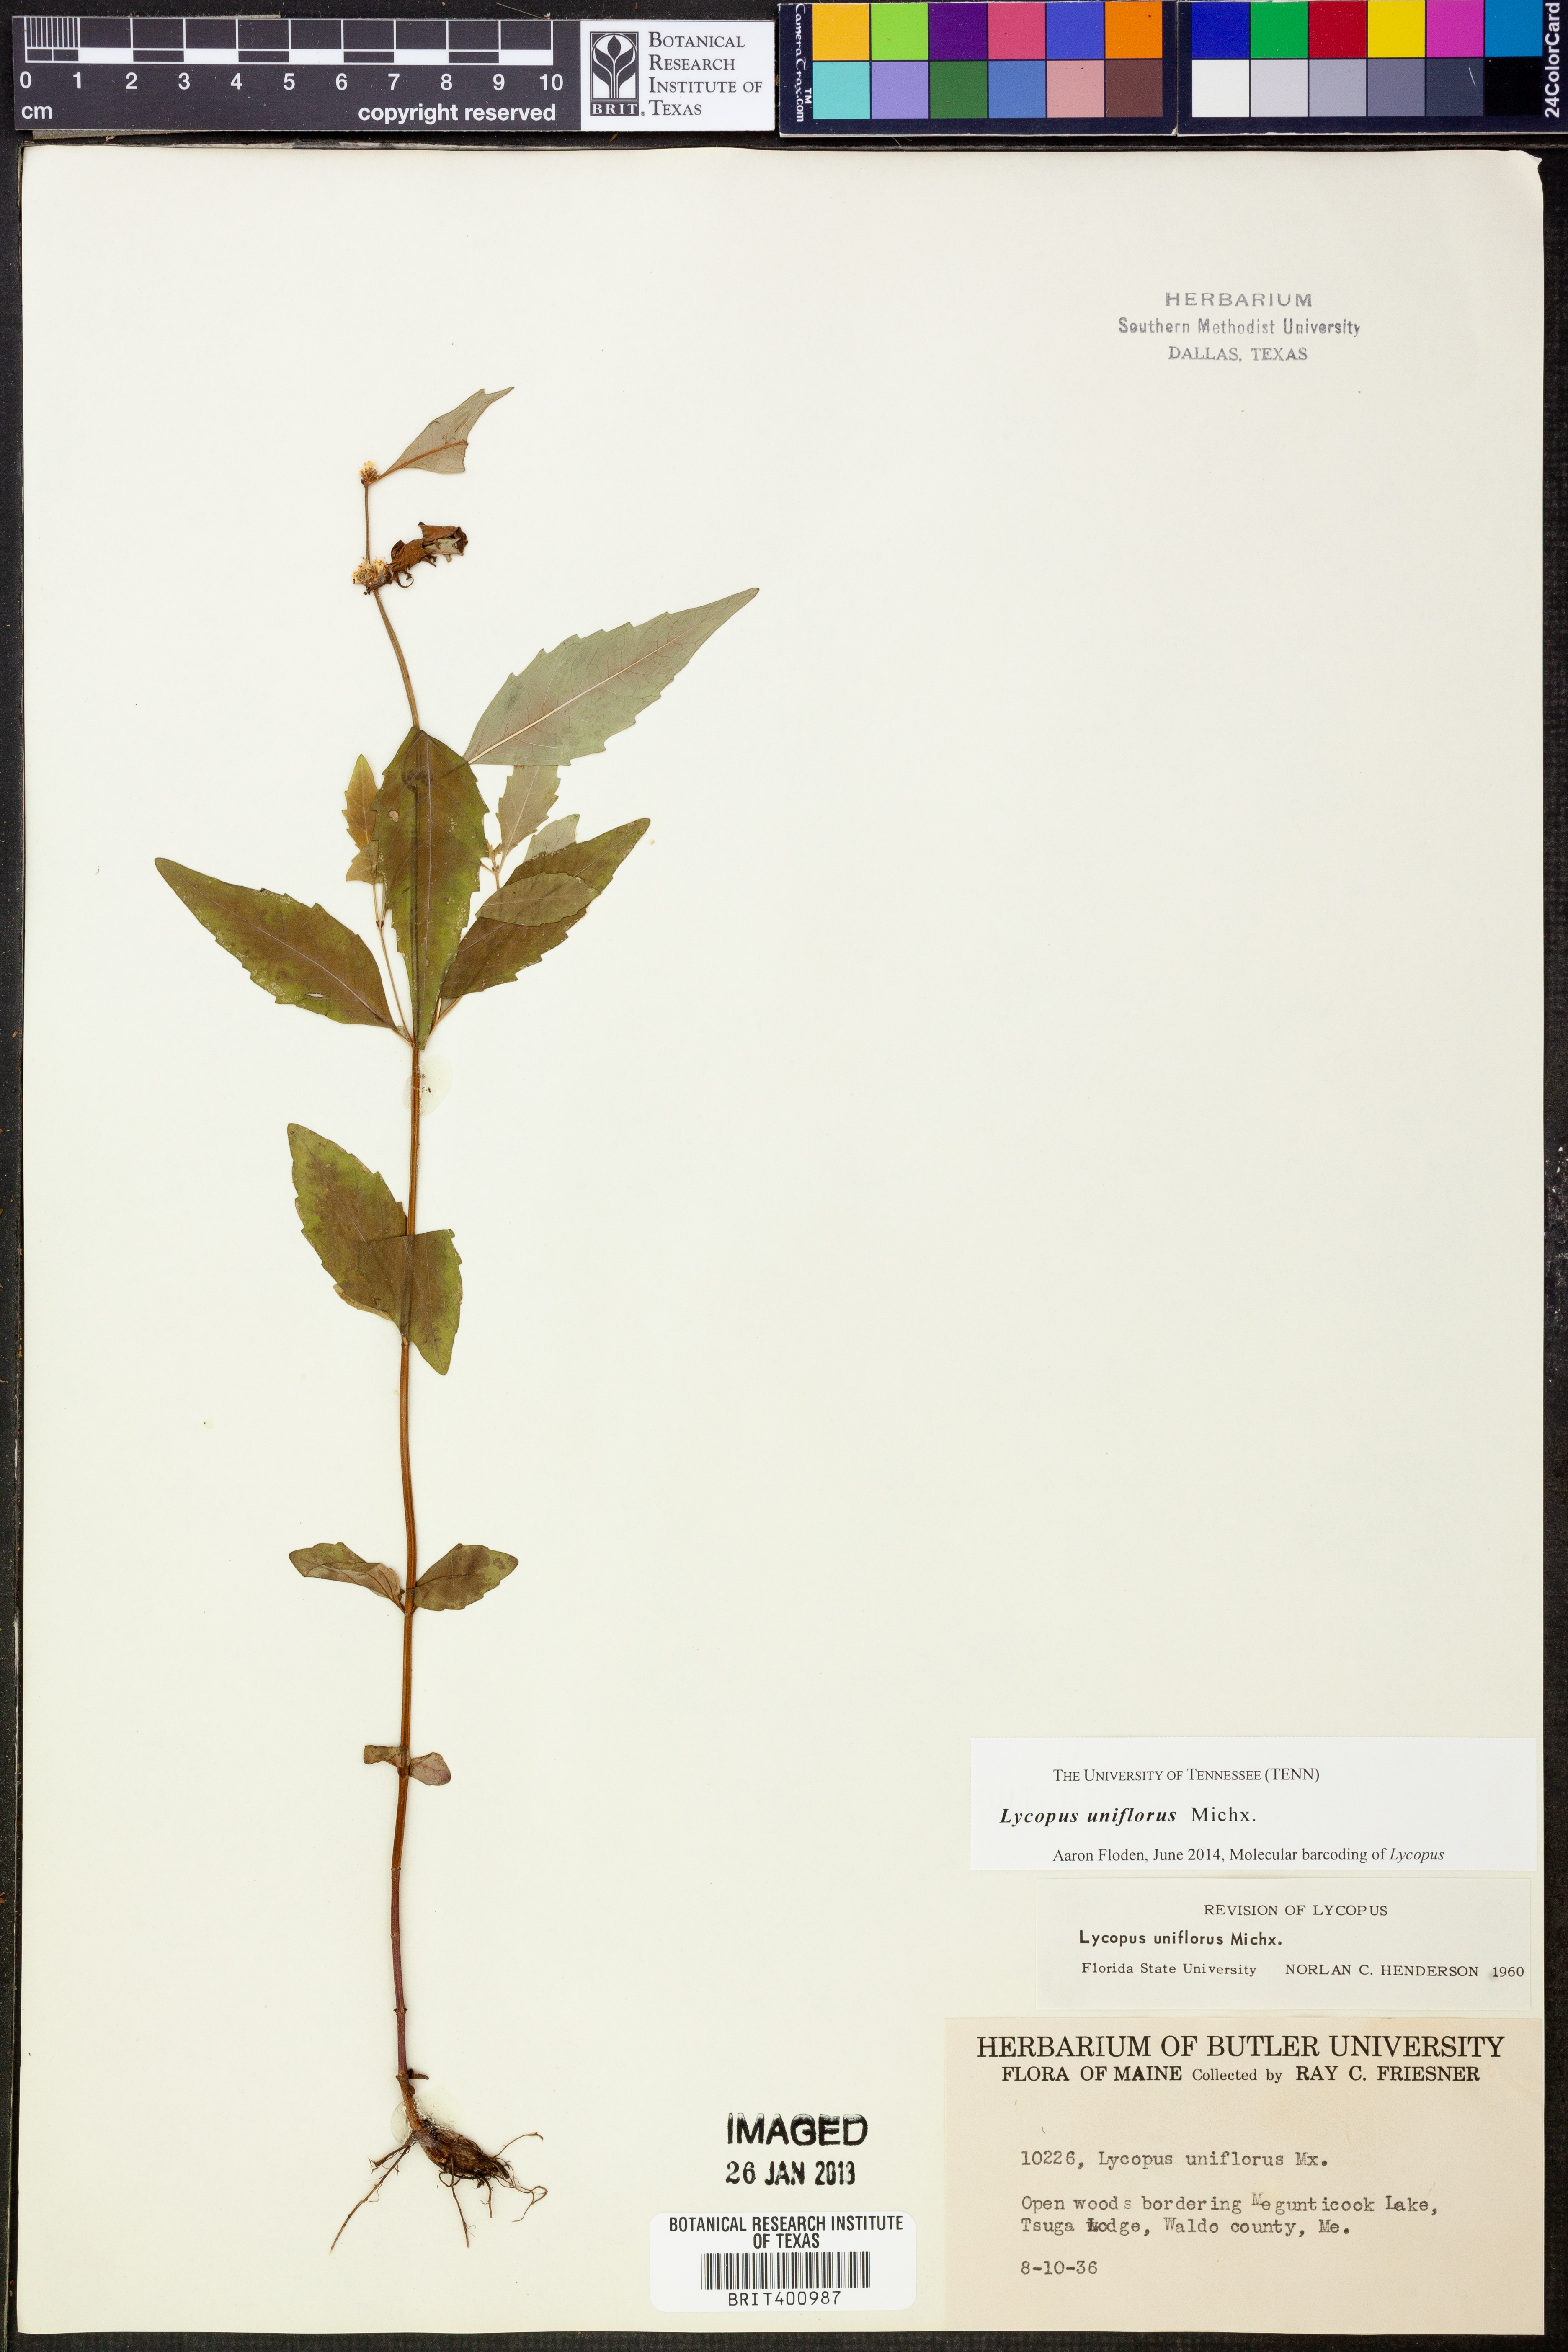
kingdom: Plantae
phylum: Tracheophyta
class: Magnoliopsida
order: Lamiales
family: Lamiaceae
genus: Lycopus
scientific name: Lycopus uniflorus
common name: Northern bugleweed
